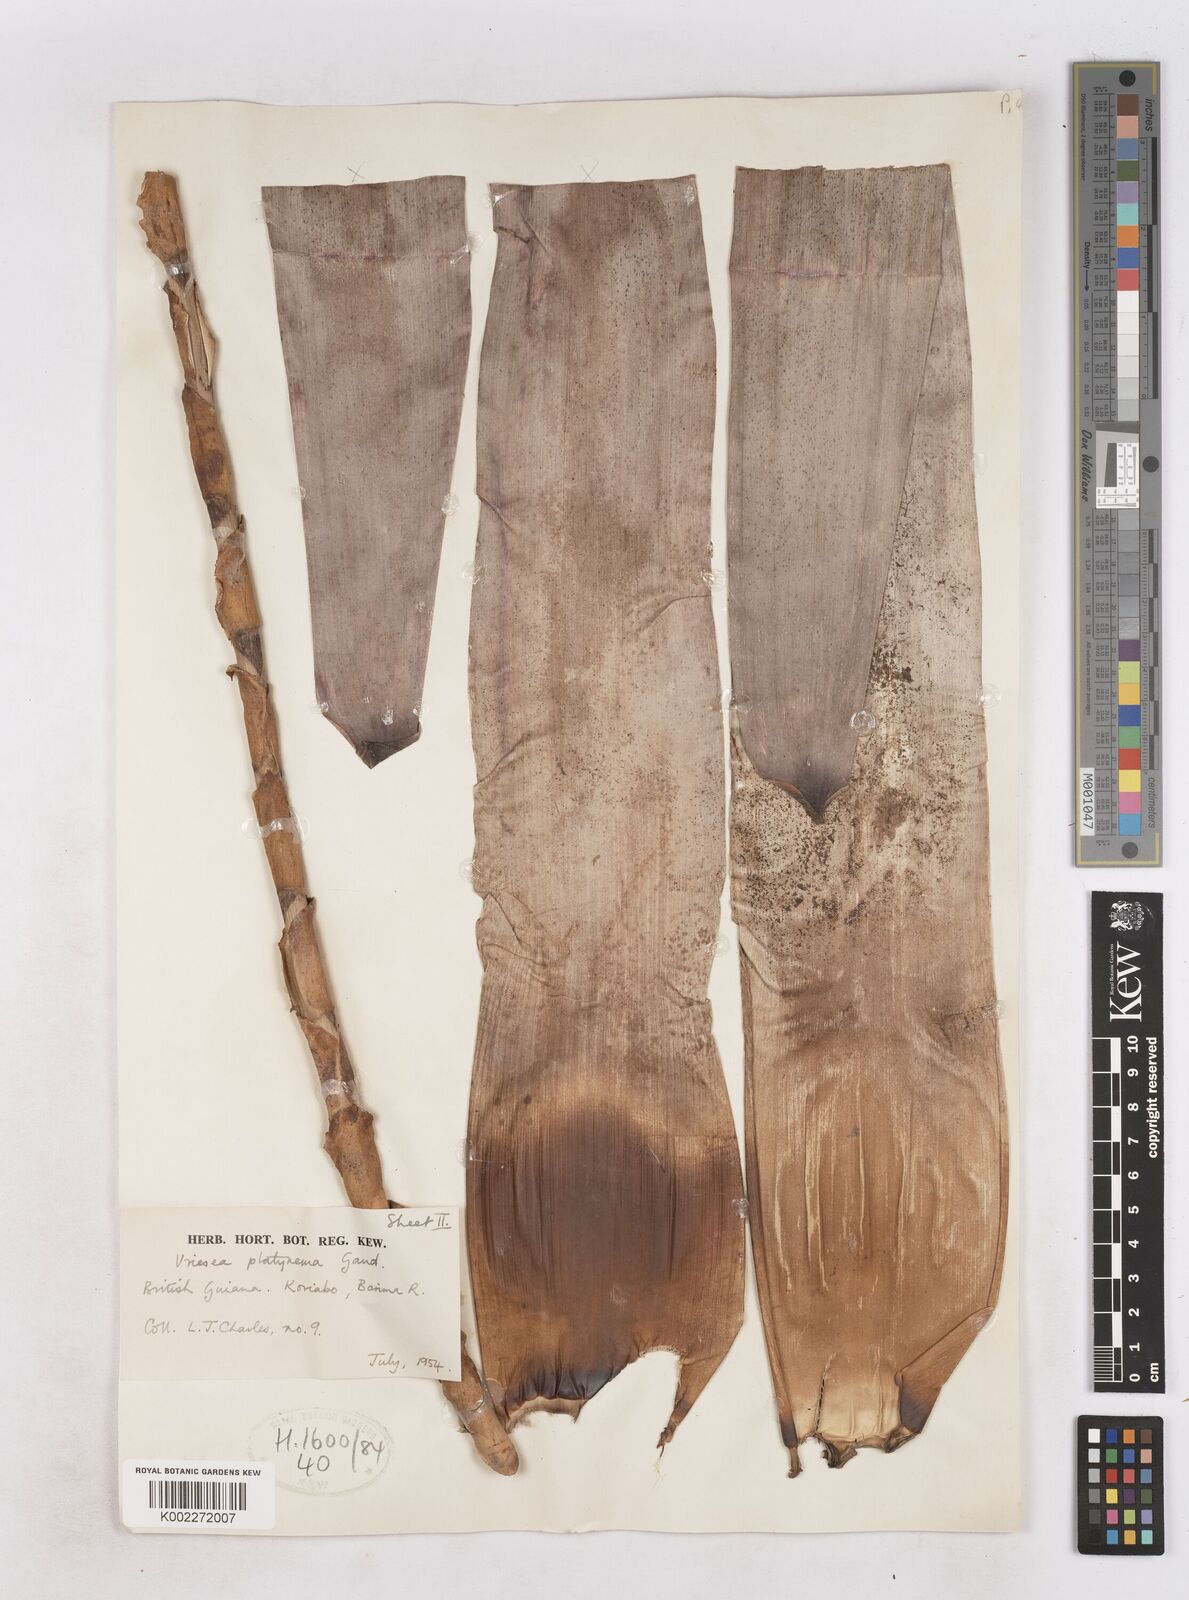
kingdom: Plantae
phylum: Tracheophyta
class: Liliopsida
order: Poales
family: Bromeliaceae
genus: Vriesea
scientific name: Vriesea platynema
